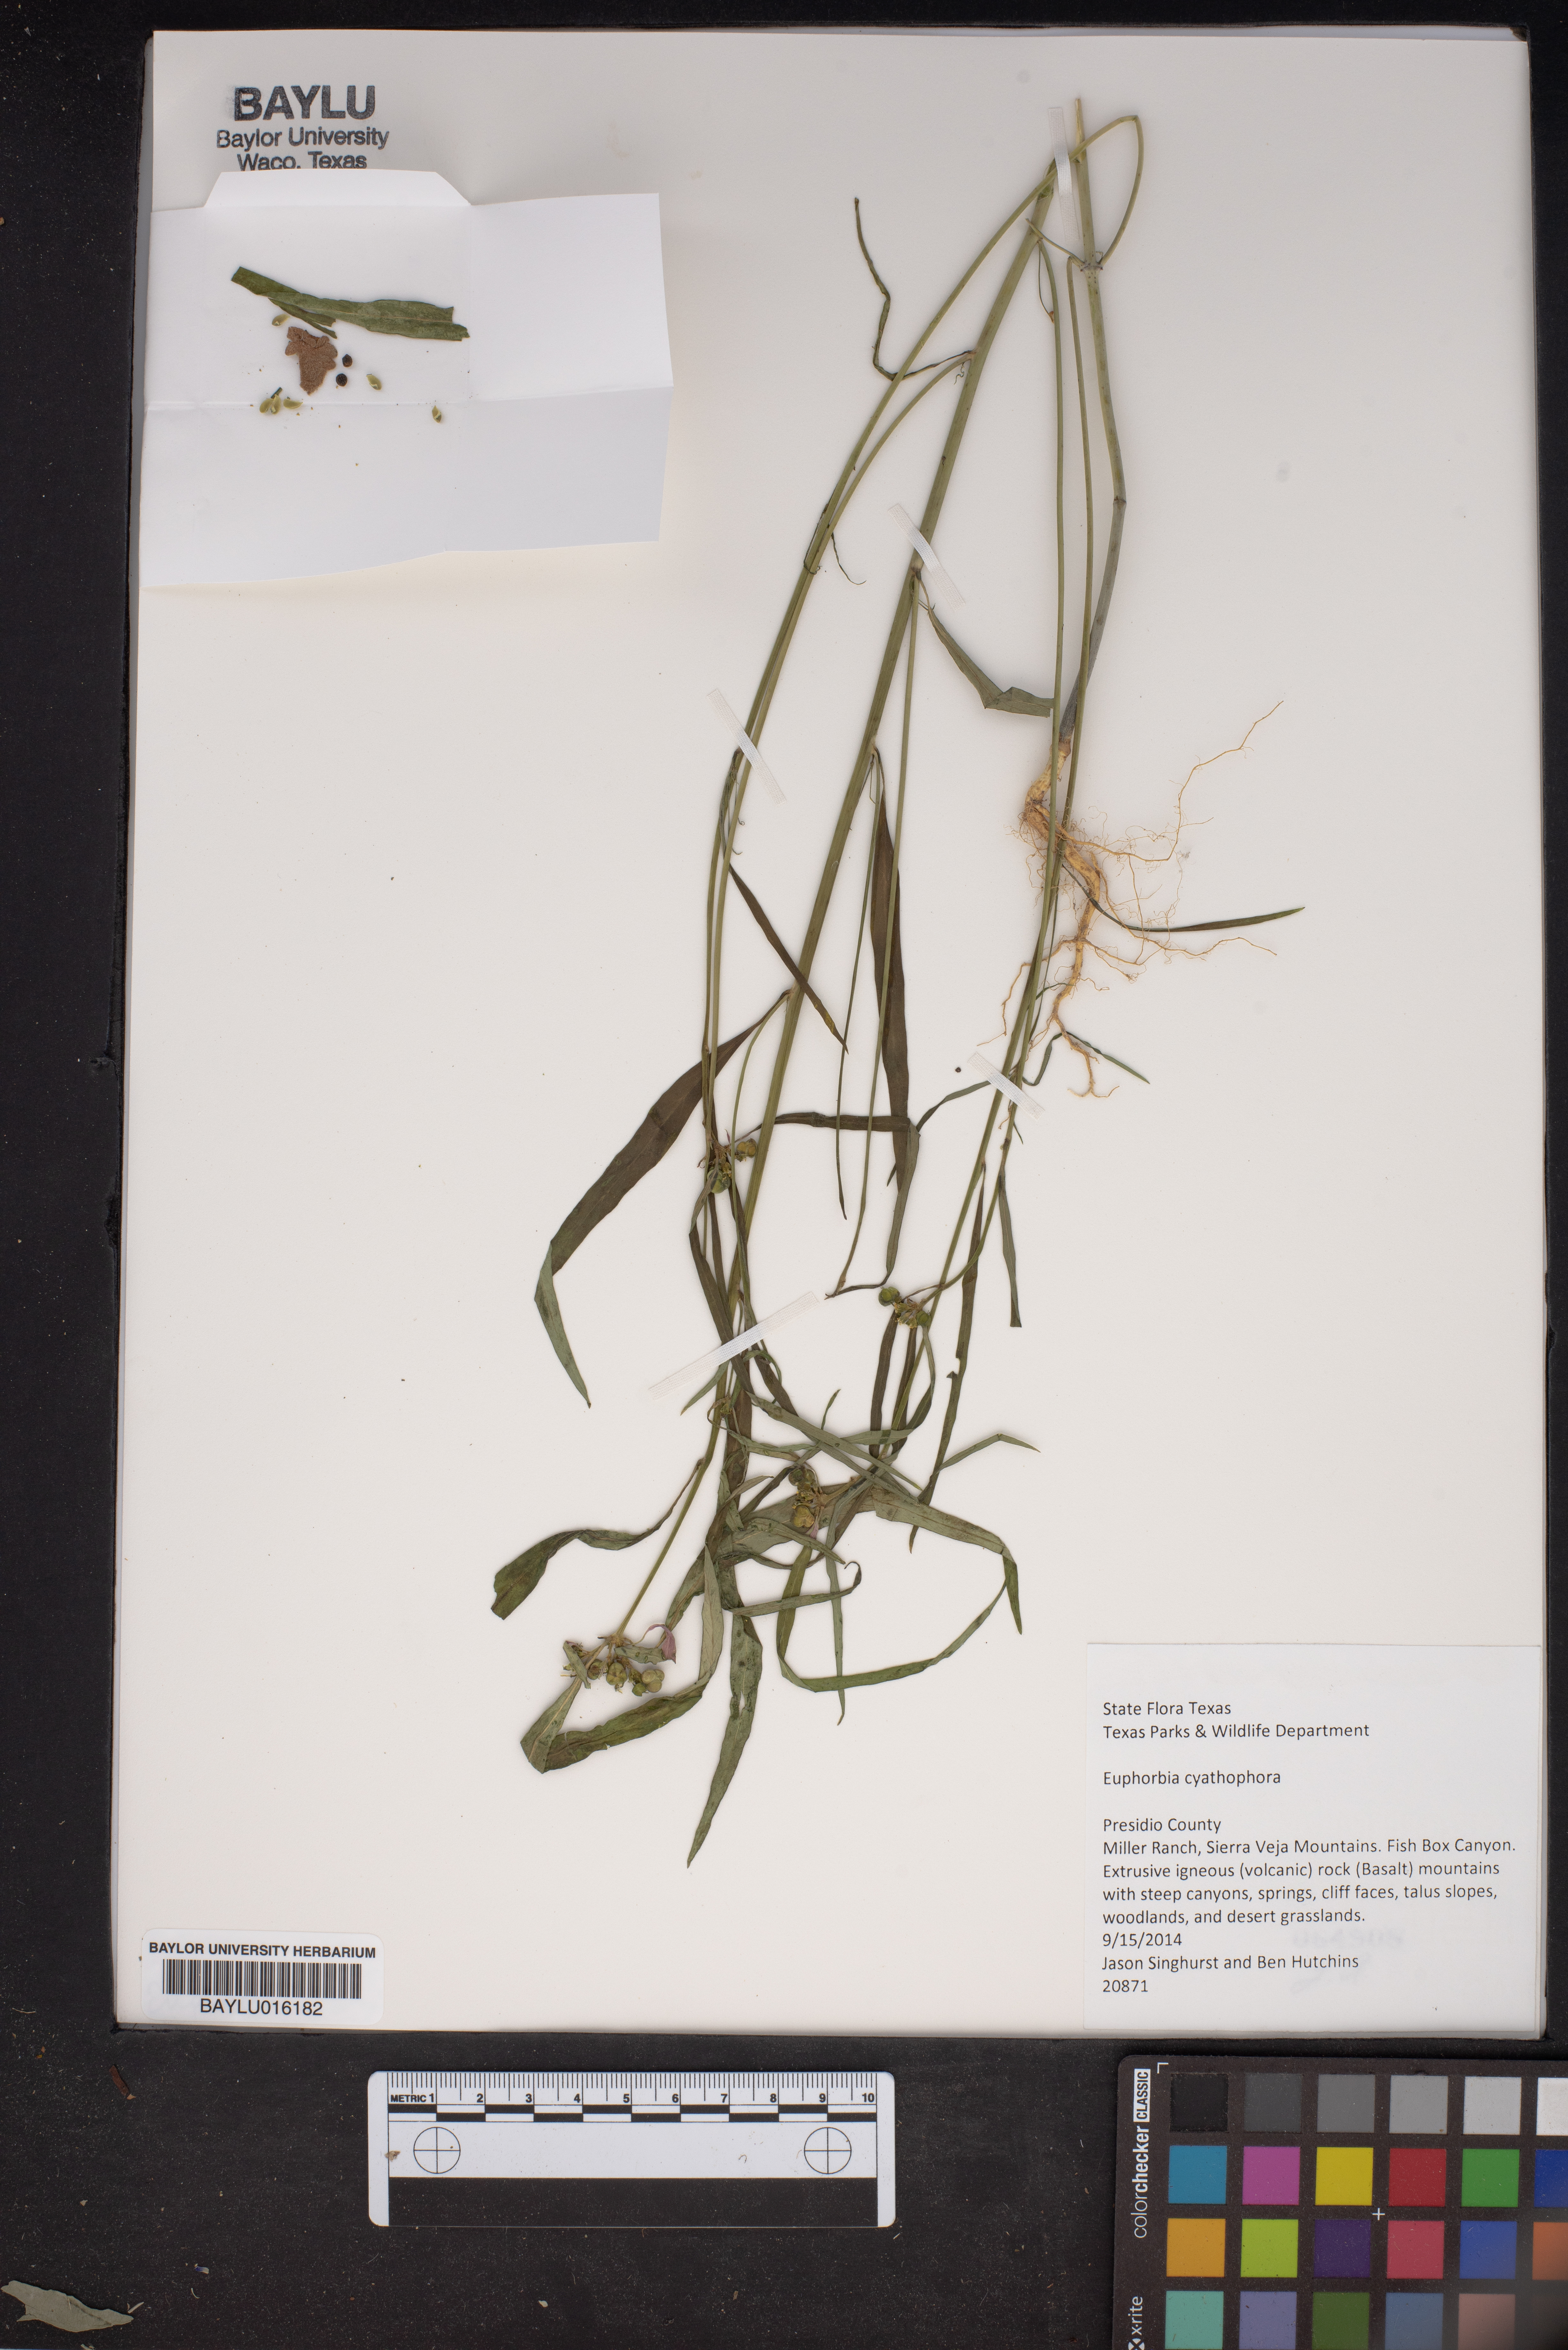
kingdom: Plantae
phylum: Tracheophyta
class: Magnoliopsida
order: Malpighiales
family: Euphorbiaceae
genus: Euphorbia
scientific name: Euphorbia heterophylla
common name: Mexican fireplant
